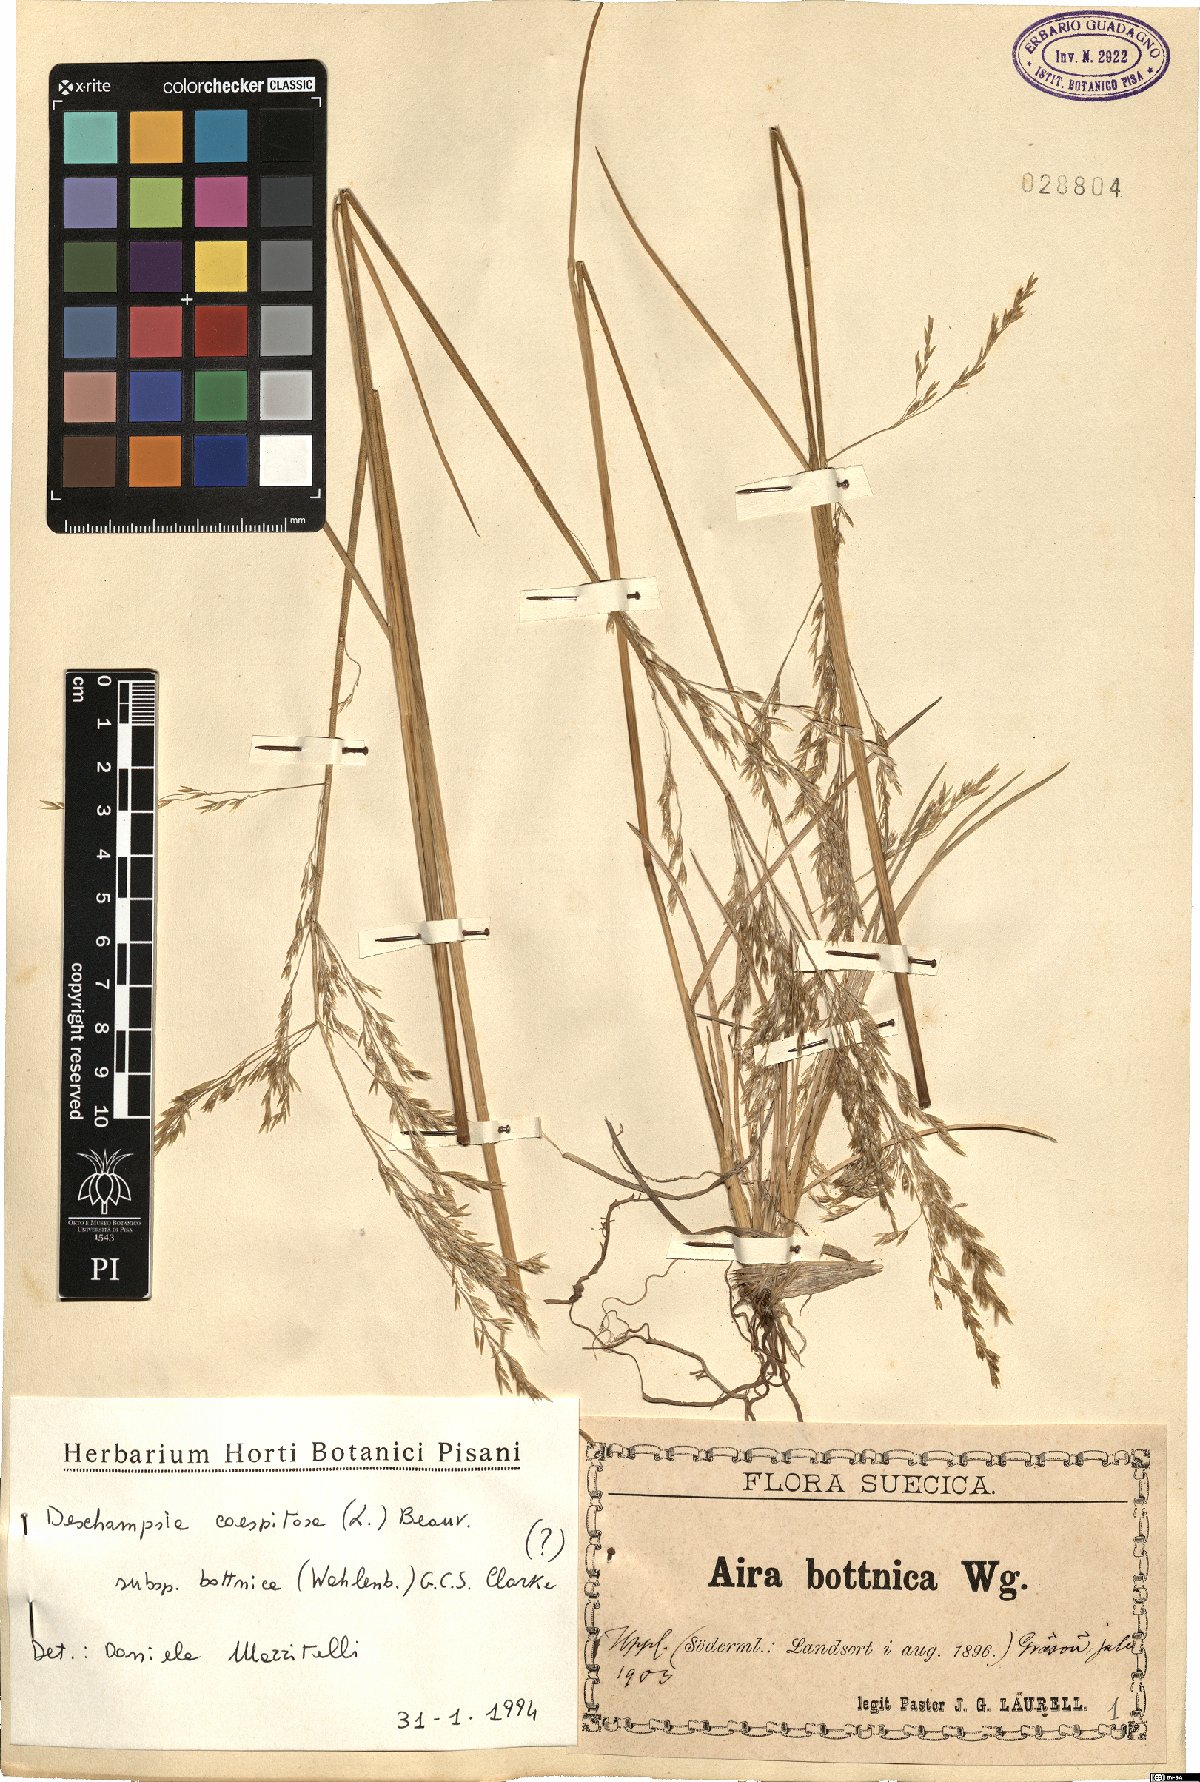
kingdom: Plantae
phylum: Tracheophyta
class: Liliopsida
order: Poales
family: Poaceae
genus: Deschampsia
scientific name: Deschampsia cespitosa
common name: Tufted hair-grass
